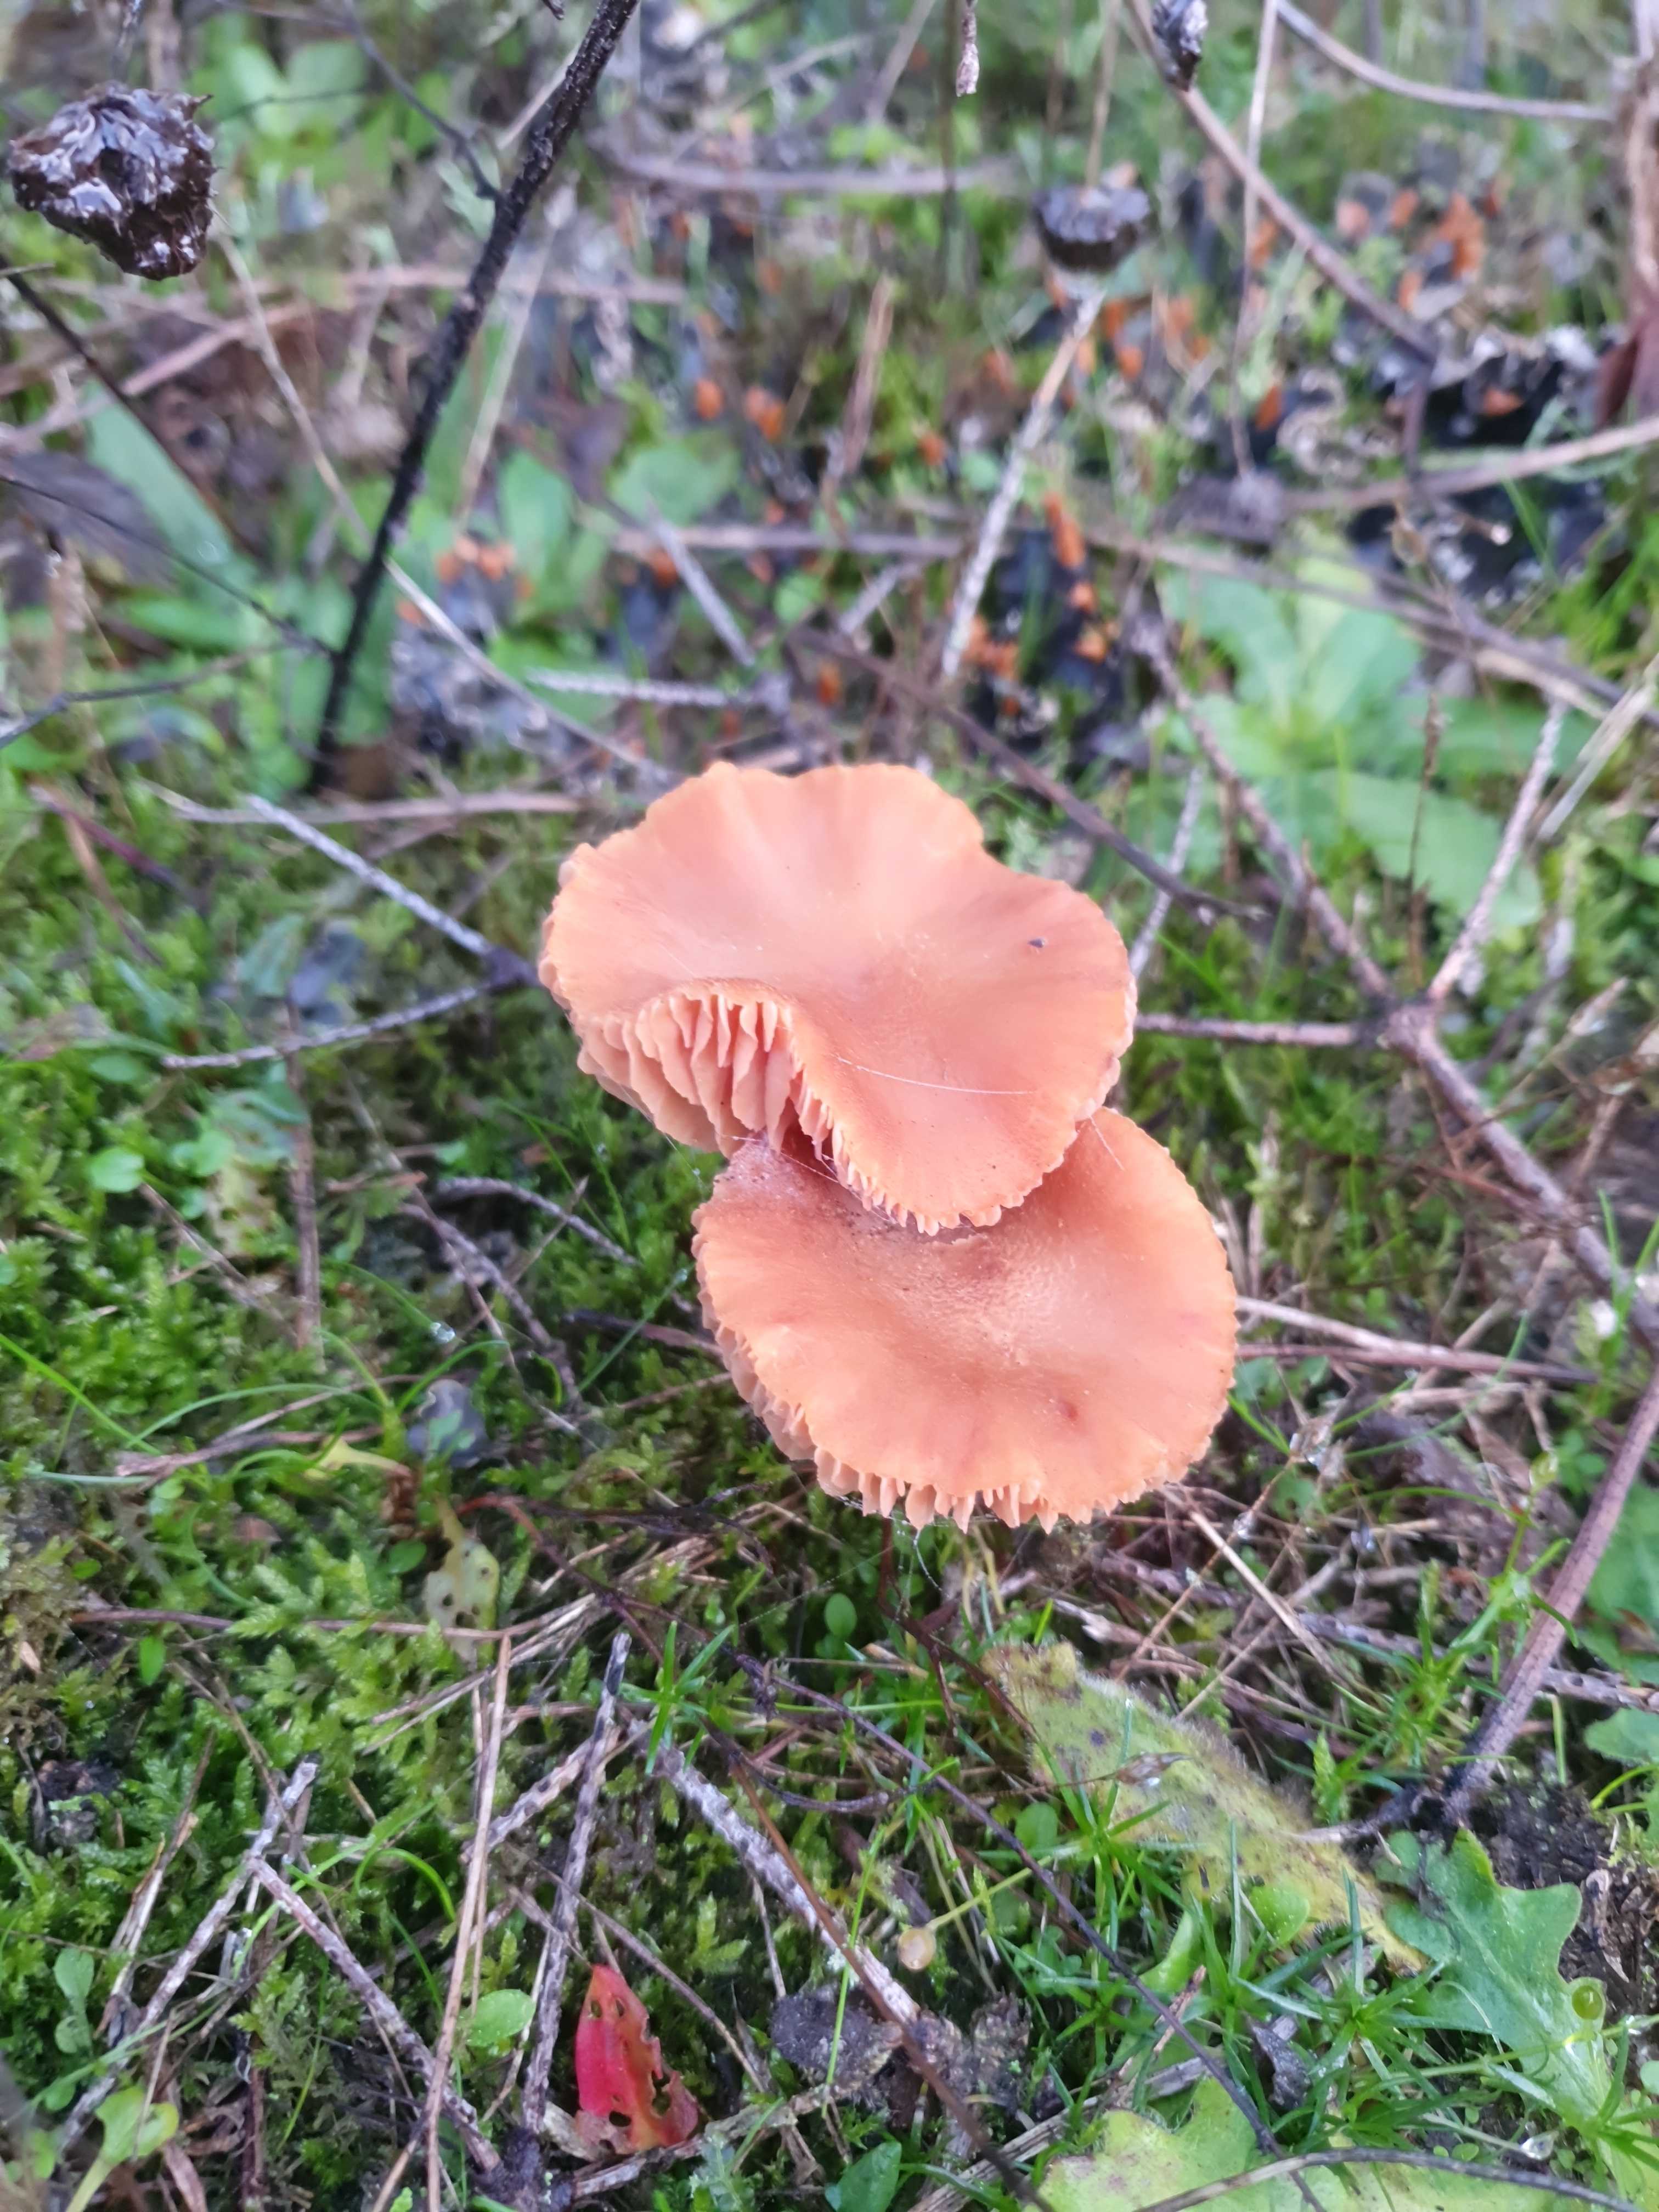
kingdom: Fungi
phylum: Basidiomycota
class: Agaricomycetes
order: Agaricales
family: Hydnangiaceae
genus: Laccaria
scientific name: Laccaria laccata
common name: rød ametysthat
